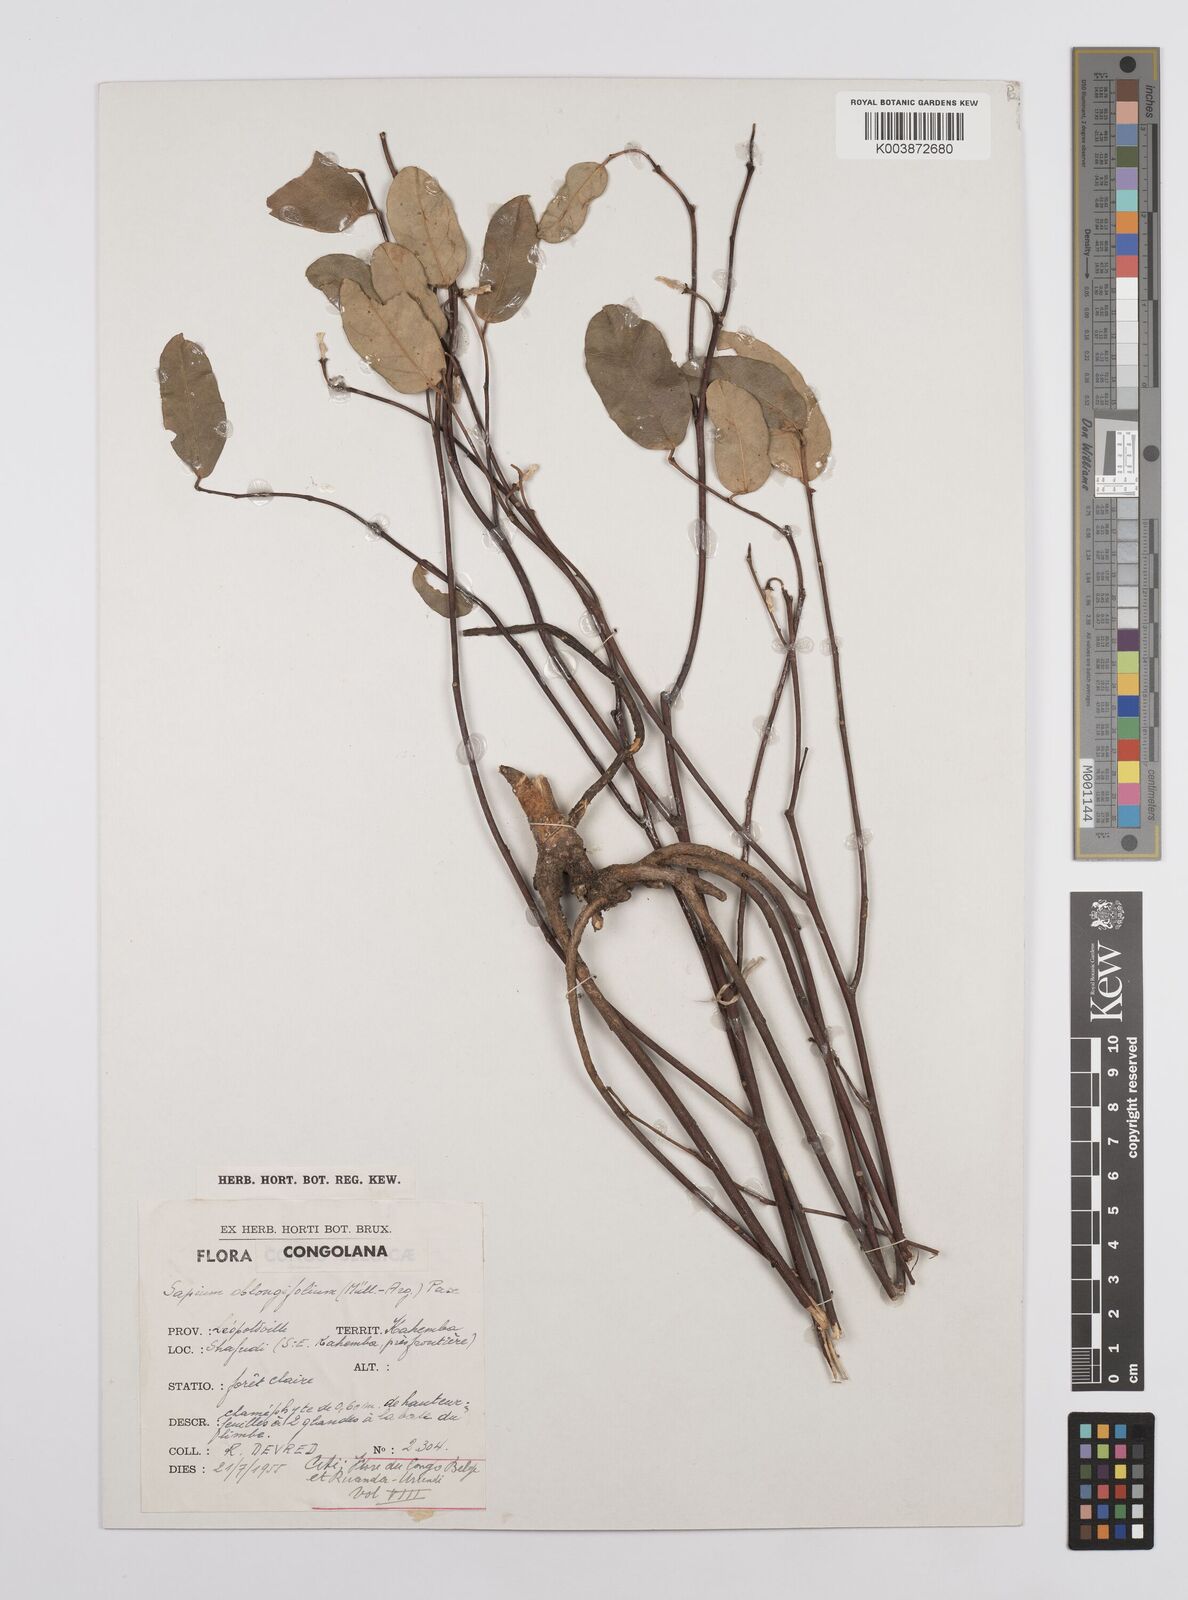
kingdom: Plantae
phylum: Tracheophyta
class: Magnoliopsida
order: Malpighiales
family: Euphorbiaceae
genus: Sclerocroton
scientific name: Sclerocroton oblongifolius
